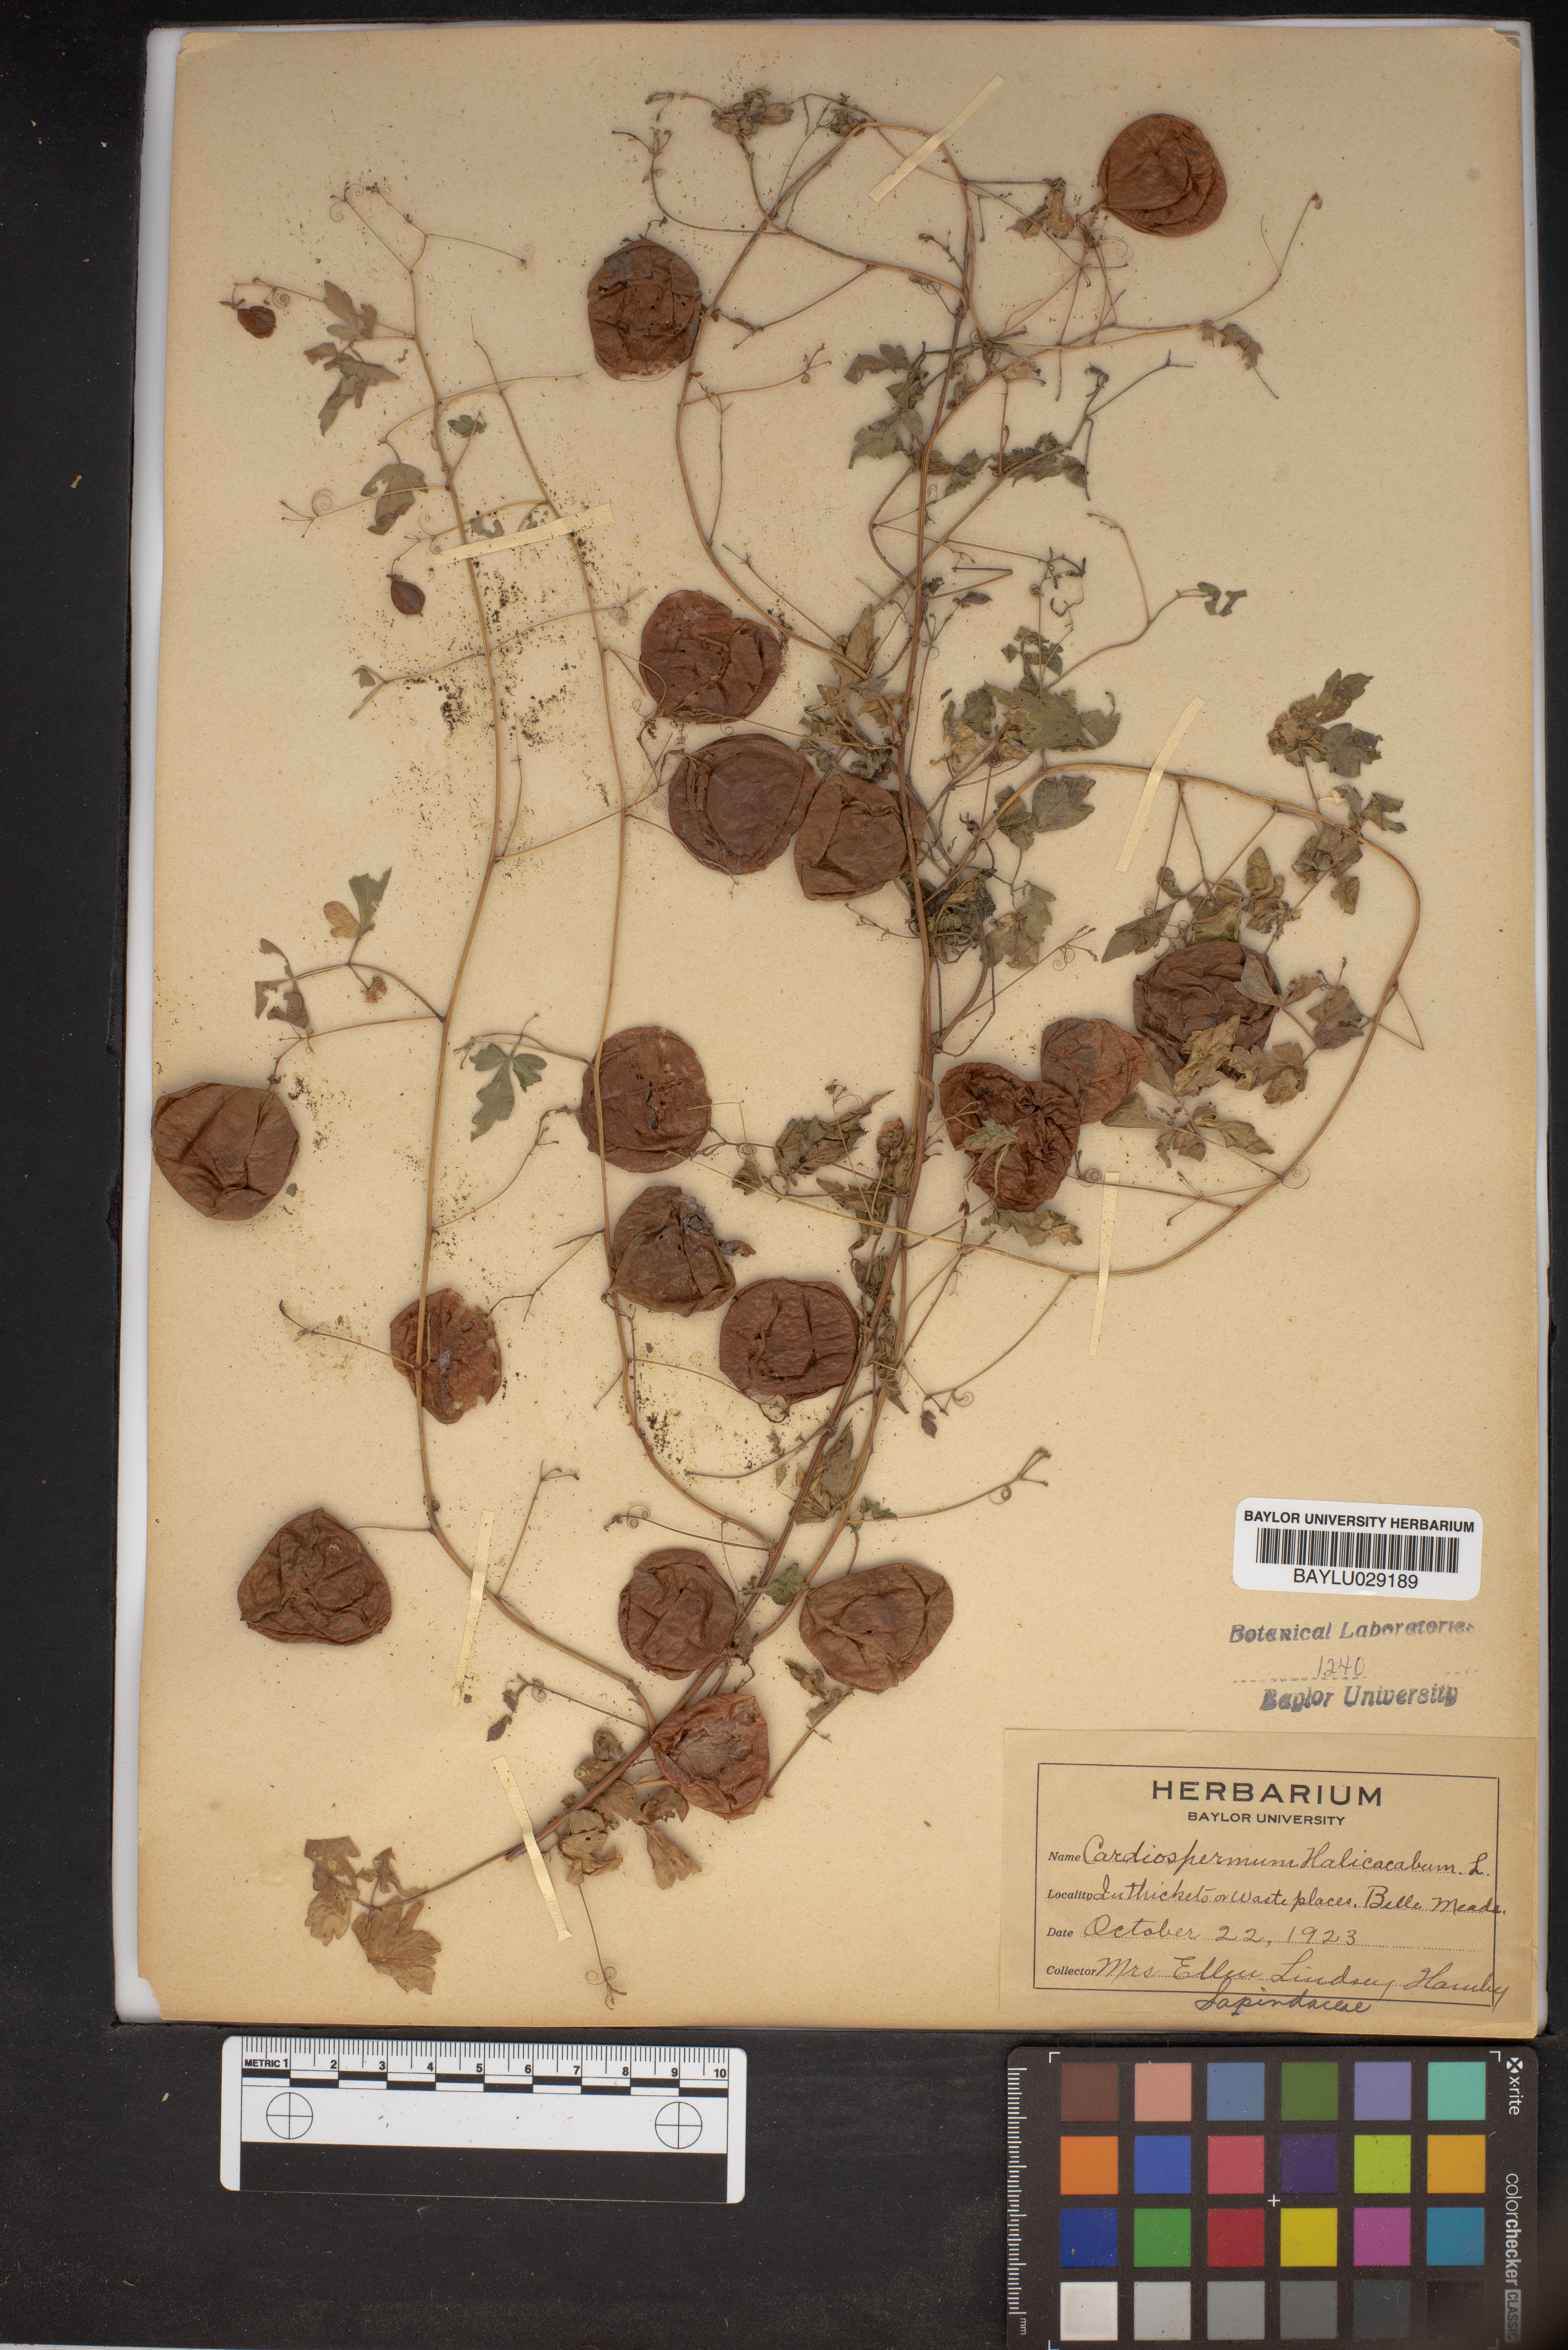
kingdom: Plantae
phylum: Tracheophyta
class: Magnoliopsida
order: Sapindales
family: Sapindaceae
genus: Cardiospermum
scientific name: Cardiospermum halicacabum
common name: Balloon vine
